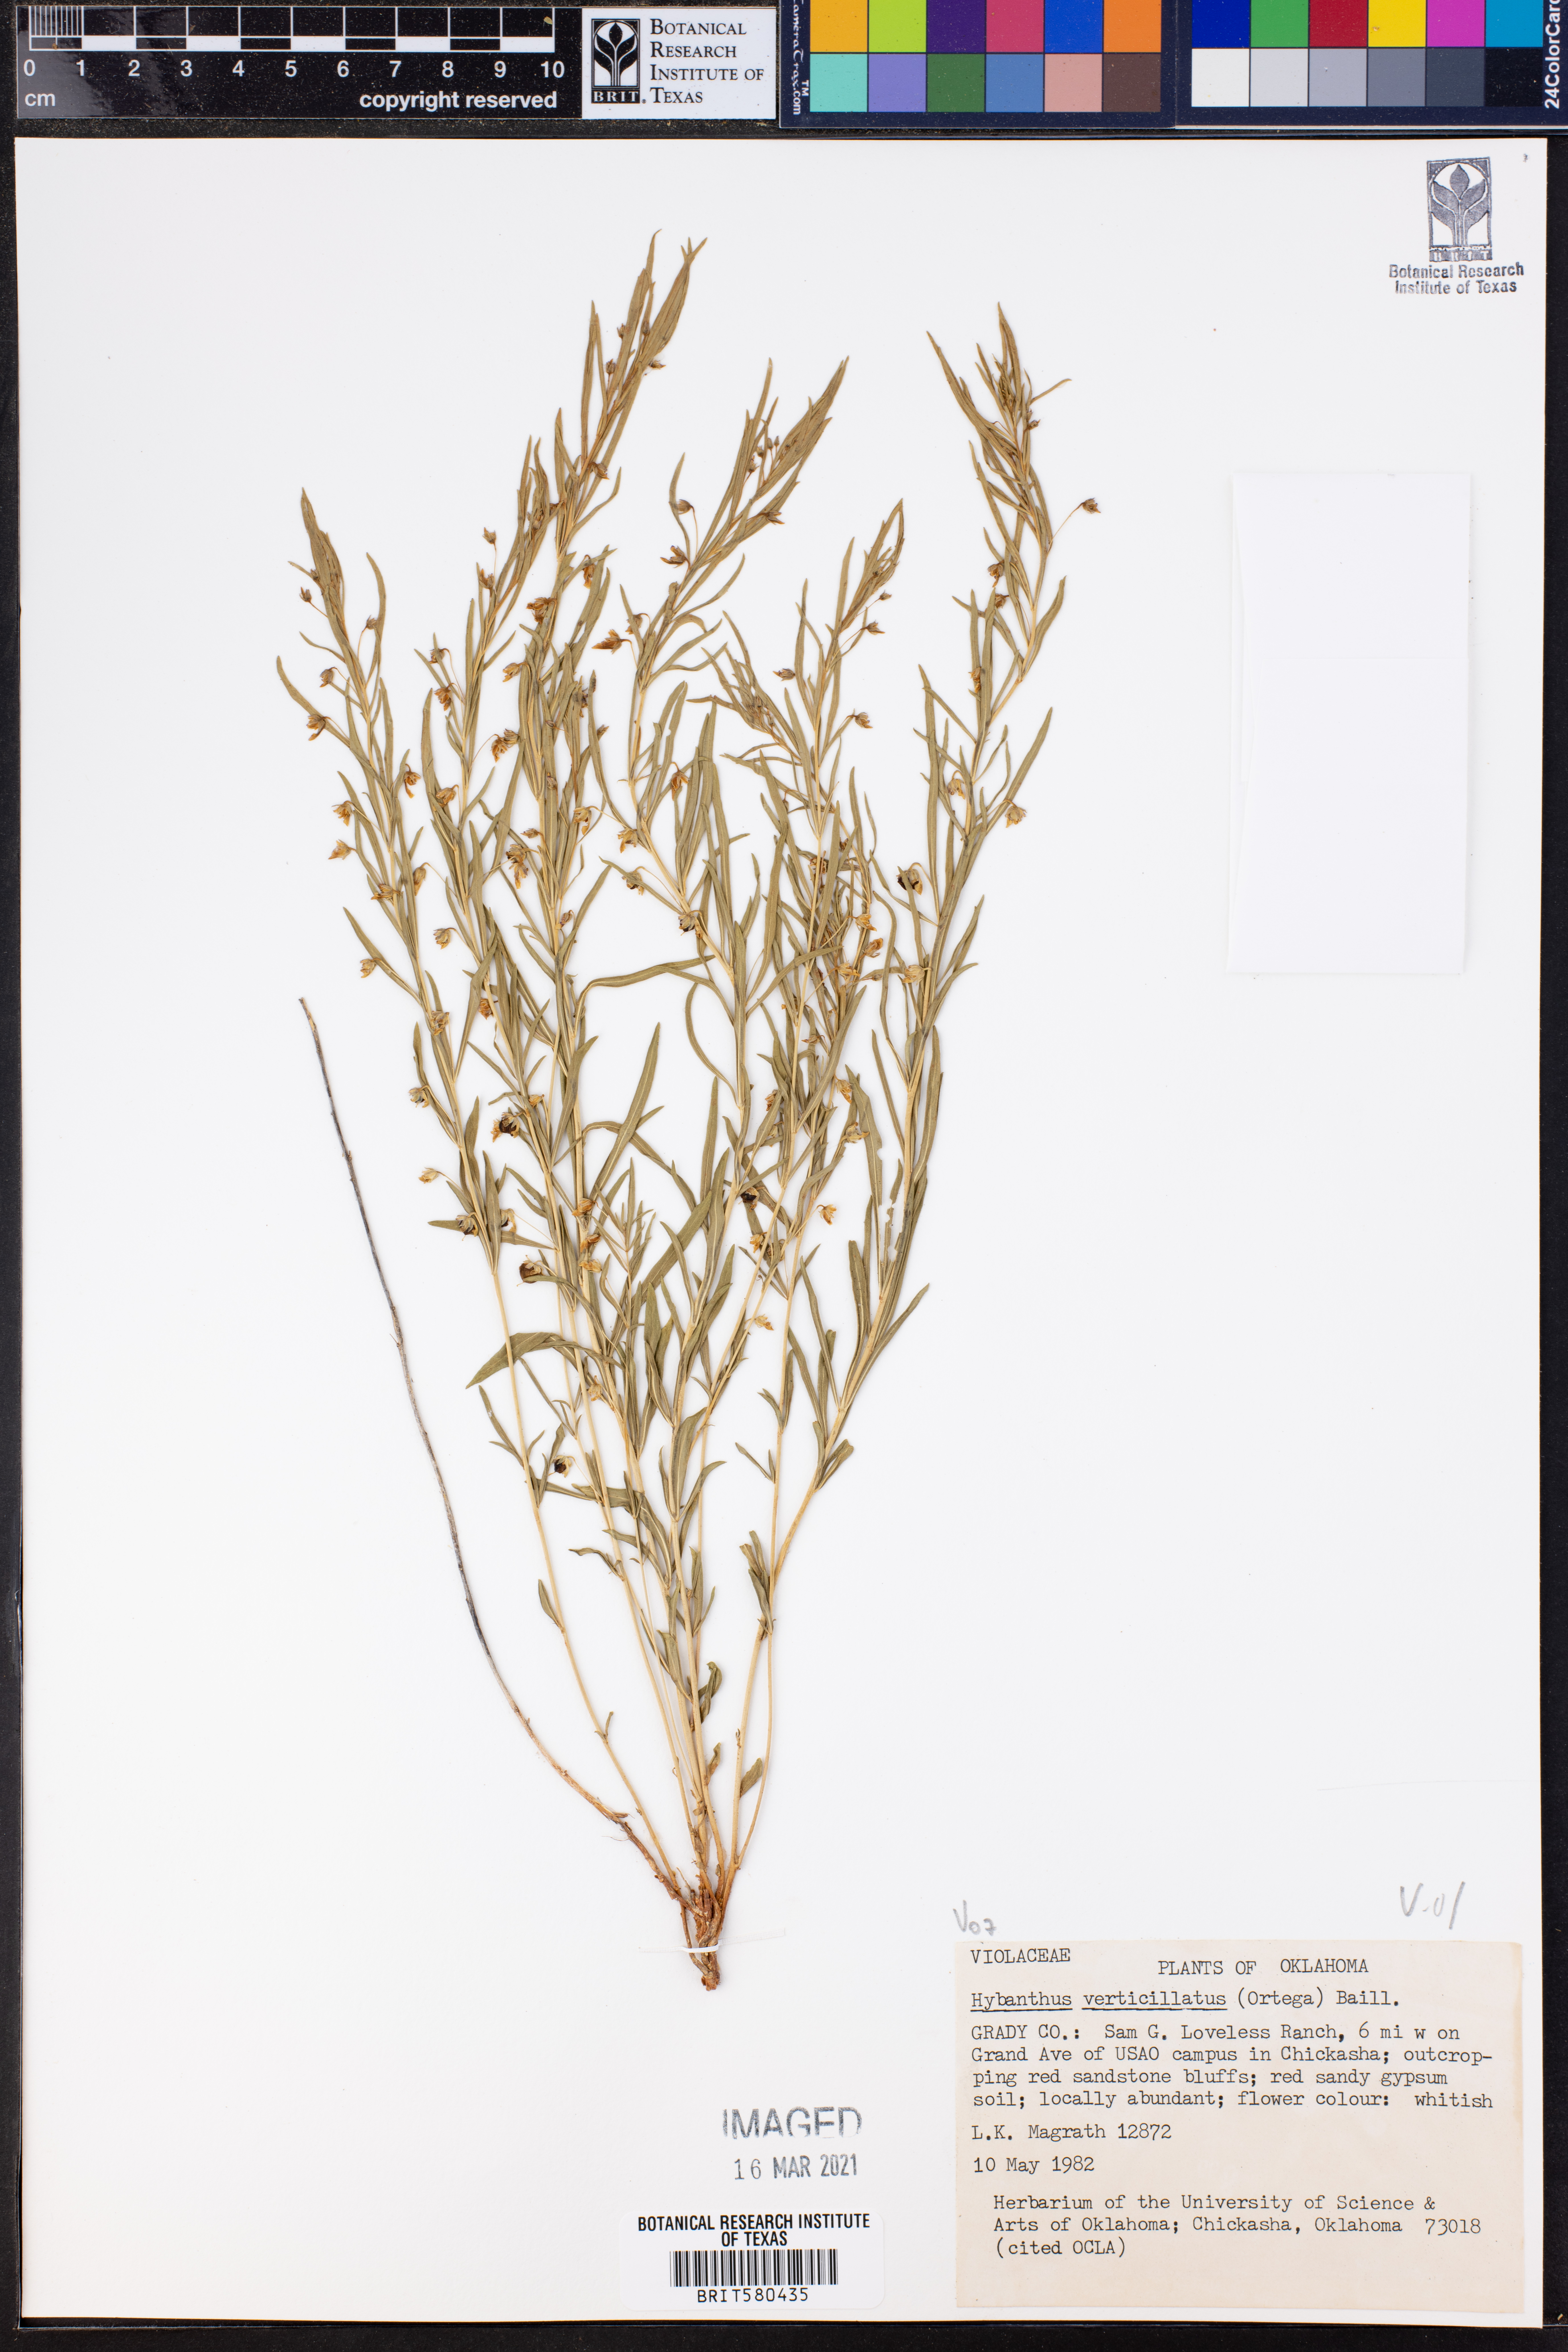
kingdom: Plantae
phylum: Tracheophyta
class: Magnoliopsida
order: Malpighiales
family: Violaceae
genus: Pombalia
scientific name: Pombalia verticillata
